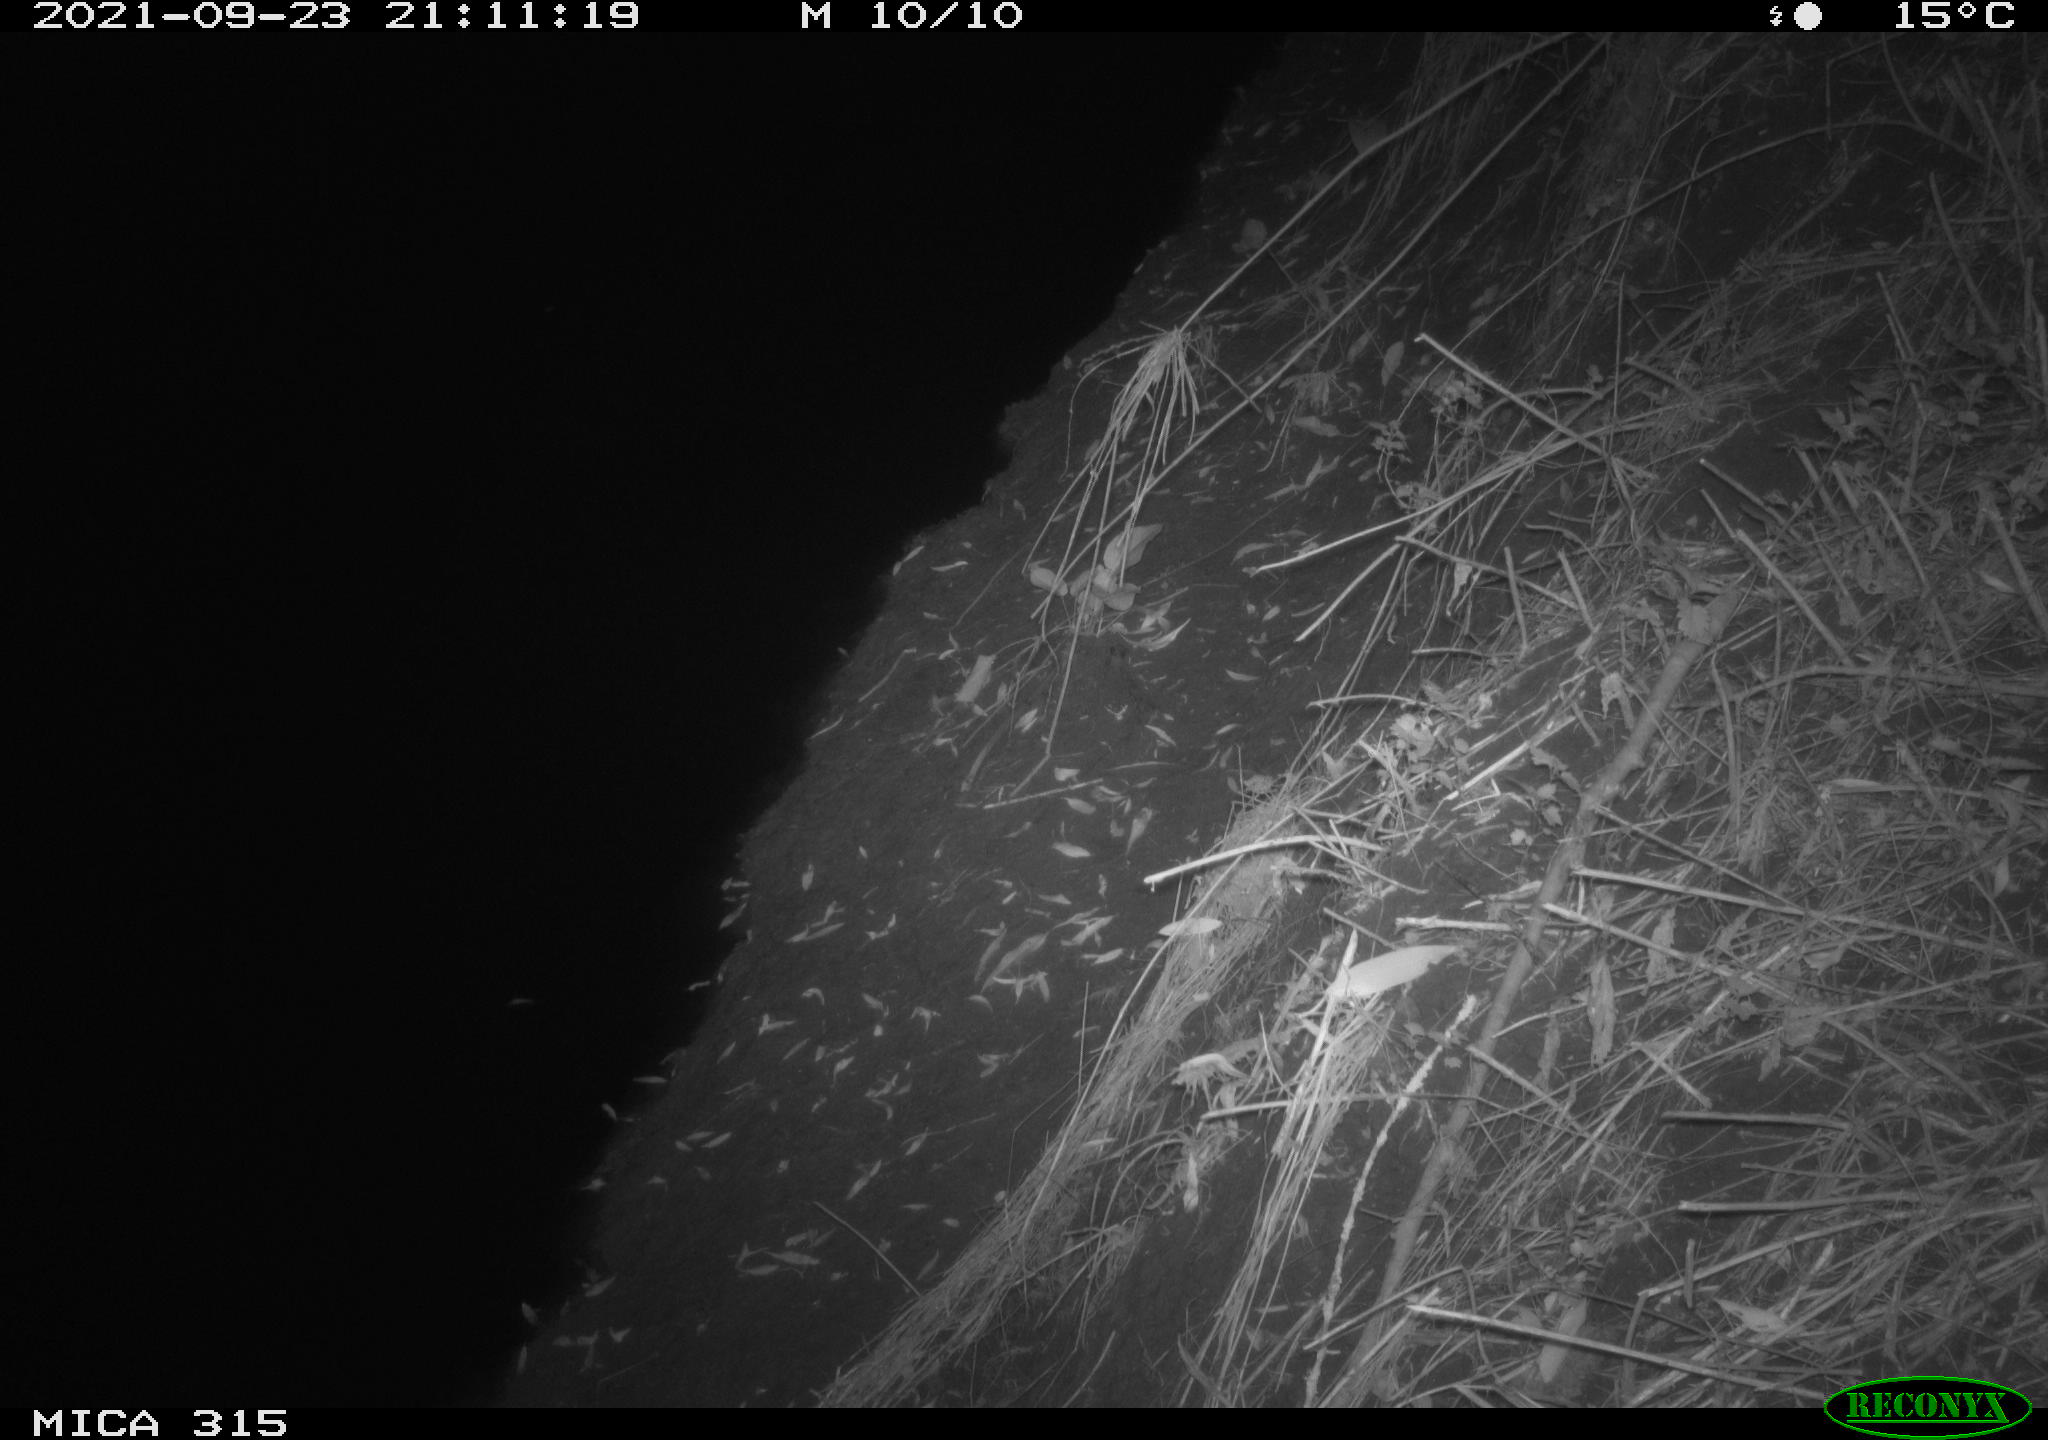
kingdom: Animalia
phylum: Chordata
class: Mammalia
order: Rodentia
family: Muridae
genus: Rattus
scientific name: Rattus norvegicus
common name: Brown rat
